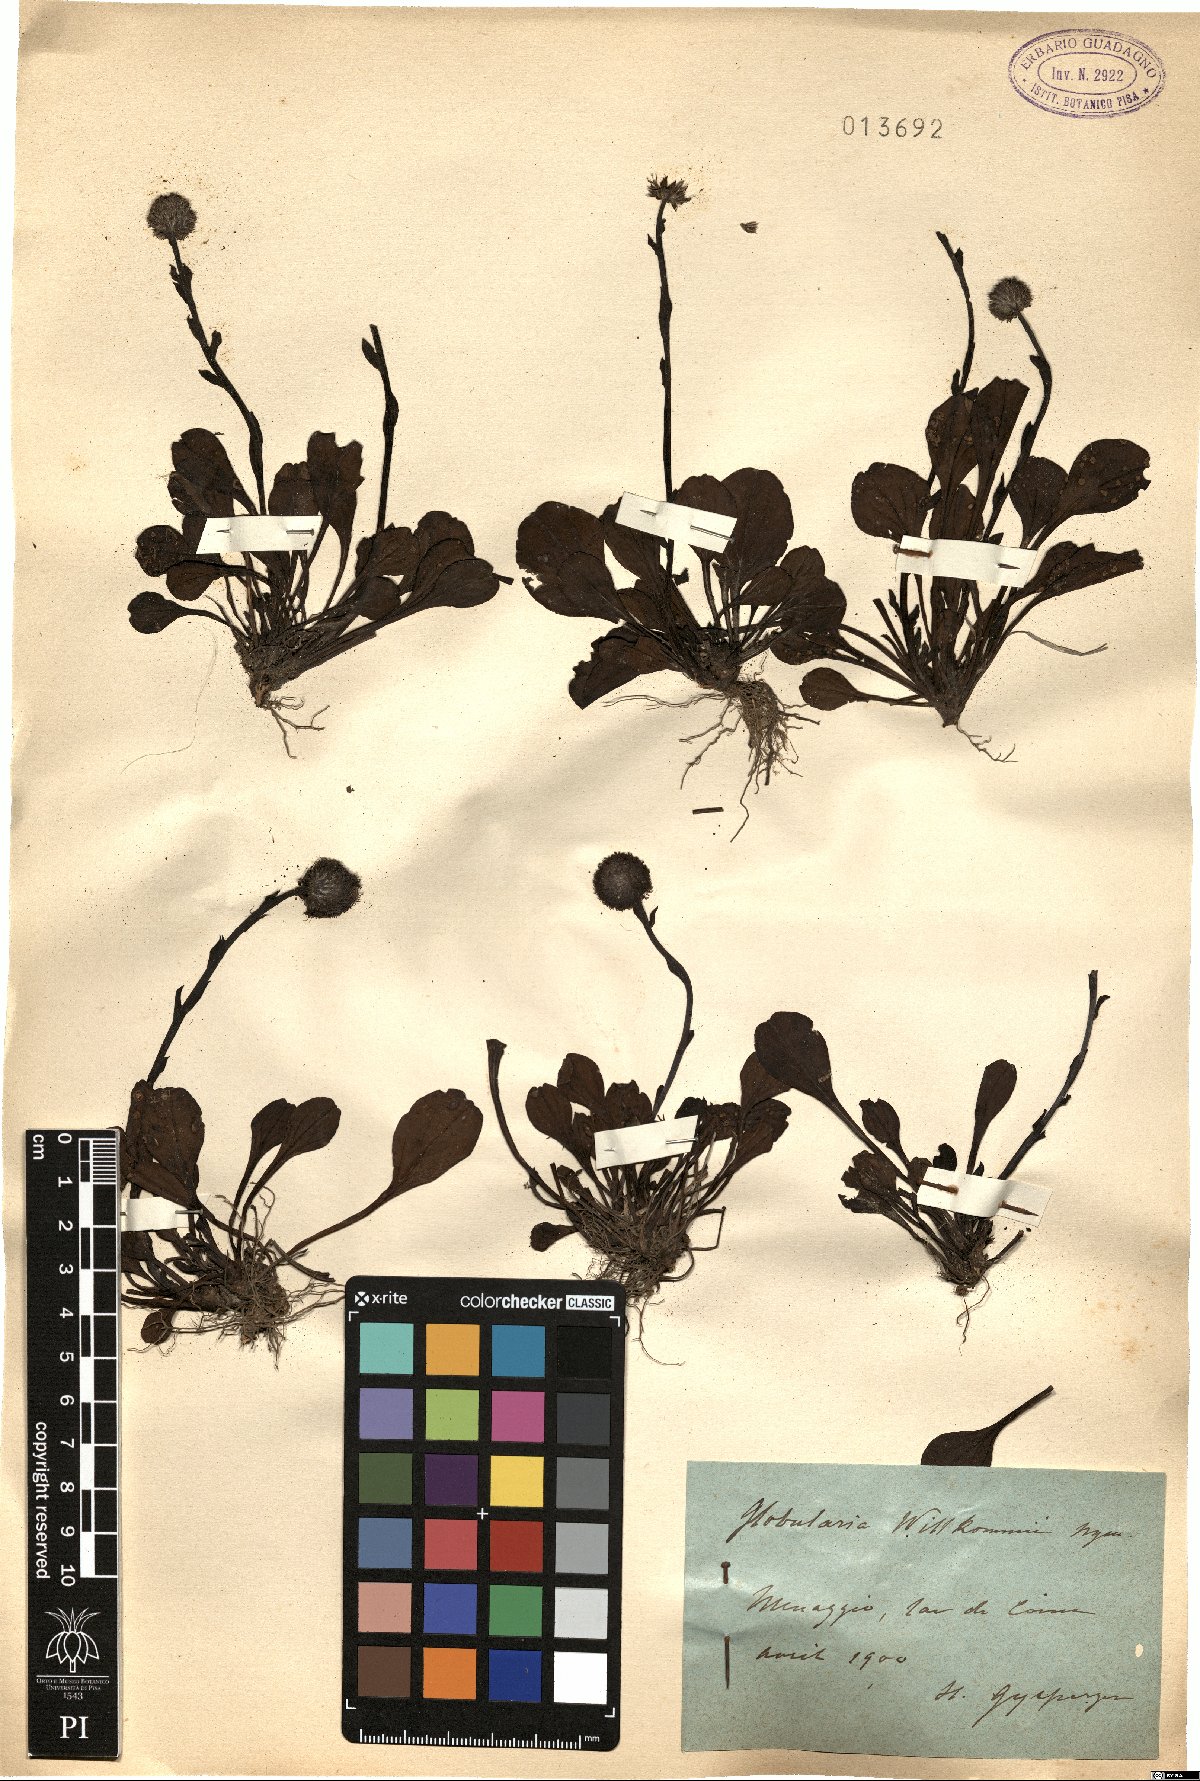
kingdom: Plantae
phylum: Tracheophyta
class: Magnoliopsida
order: Lamiales
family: Plantaginaceae
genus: Globularia
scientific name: Globularia bisnagarica
